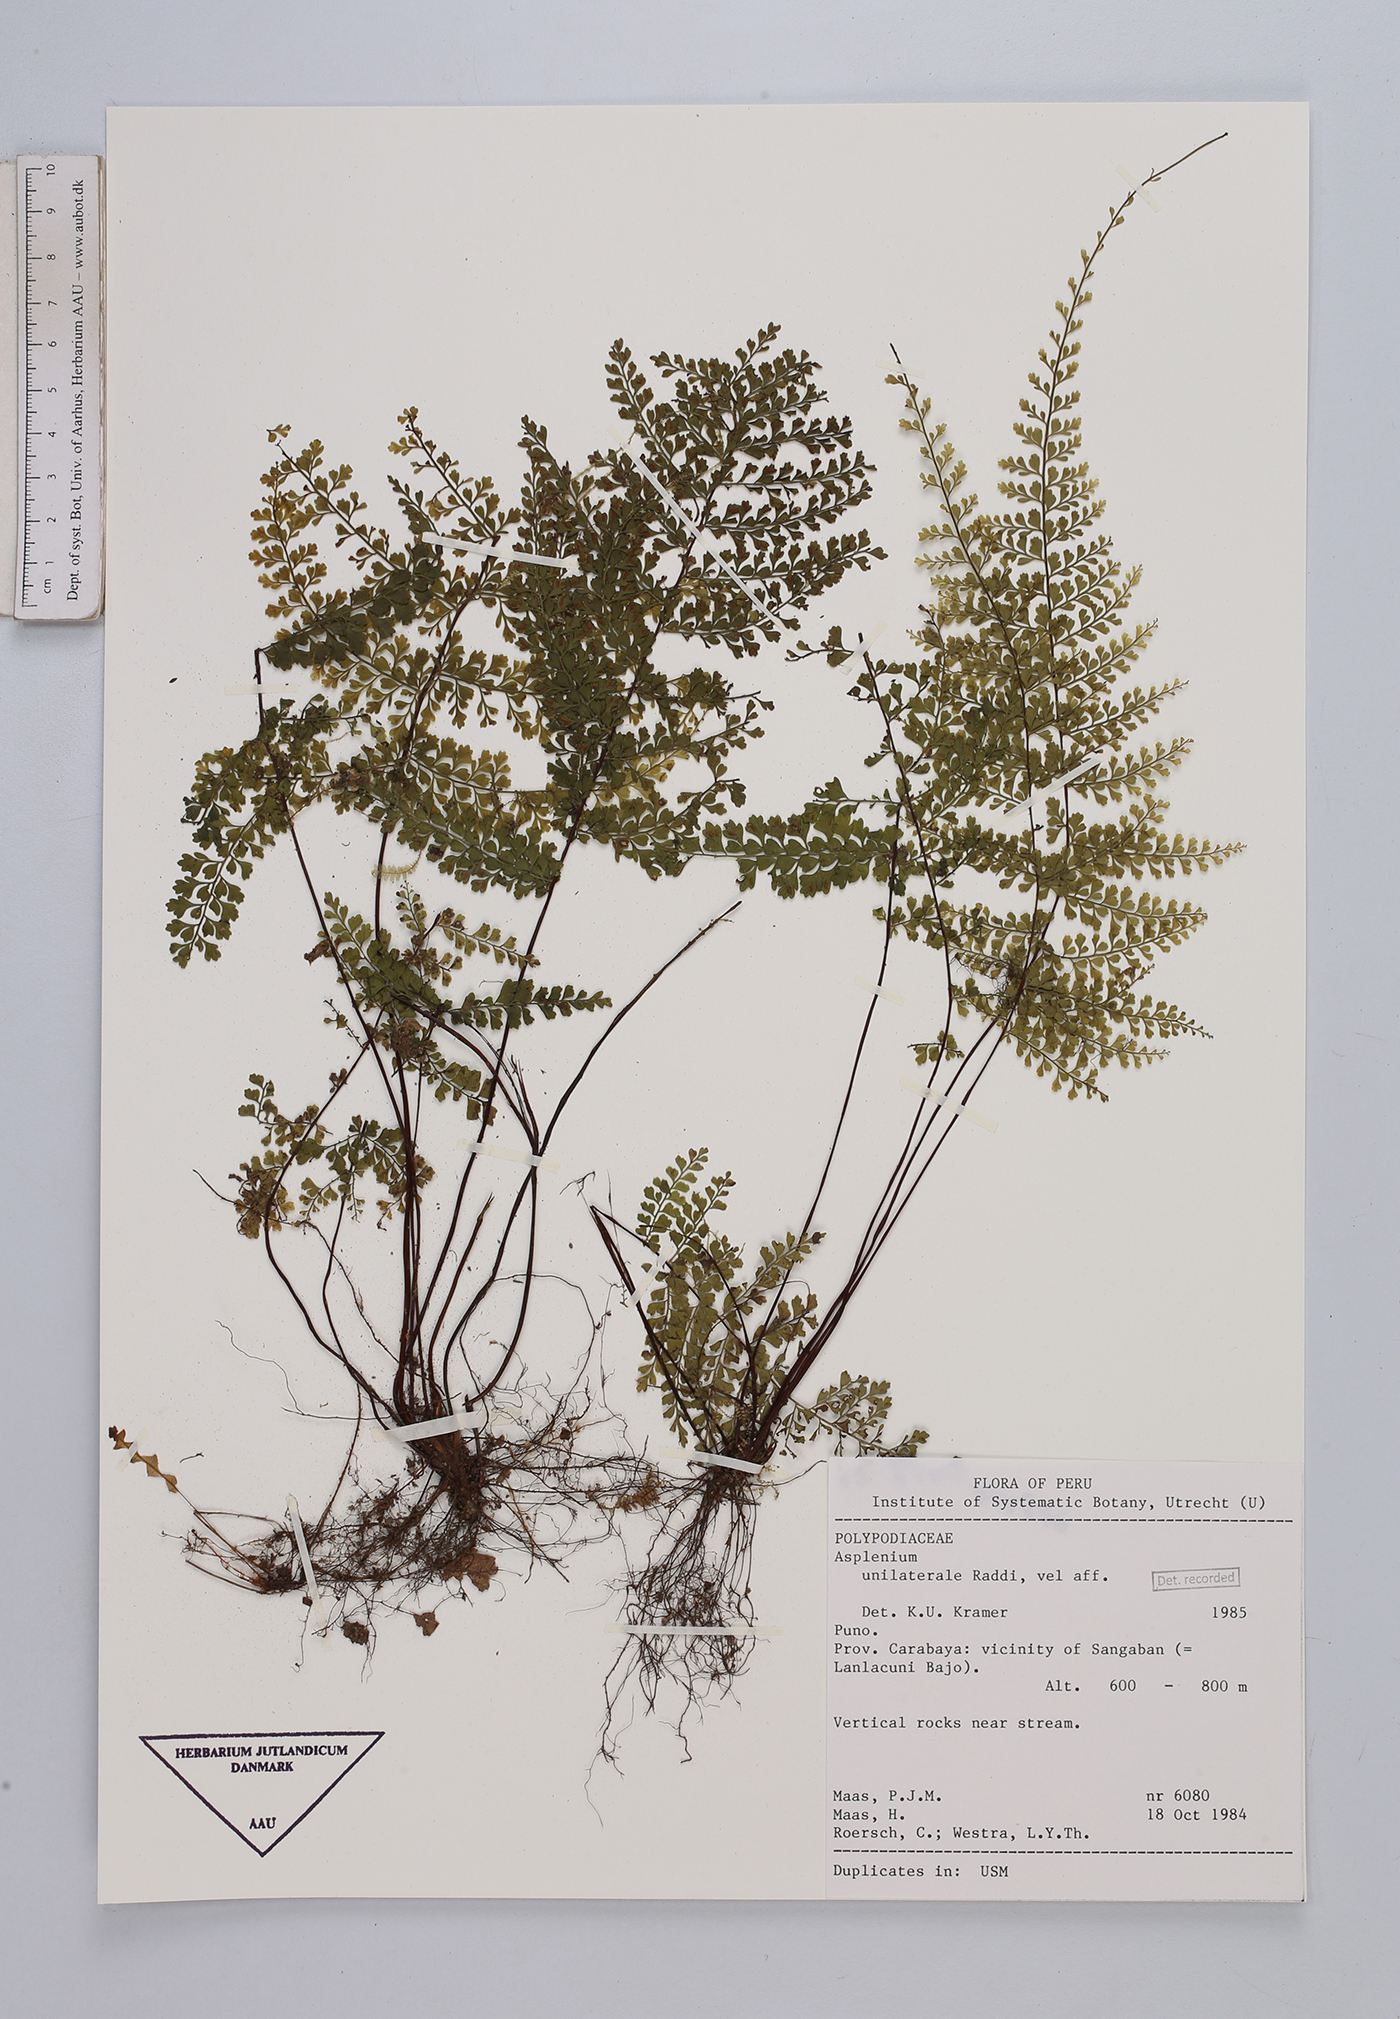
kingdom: Plantae
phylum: Tracheophyta
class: Polypodiopsida
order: Polypodiales
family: Aspleniaceae
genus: Hymenasplenium
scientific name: Hymenasplenium unilaterale
